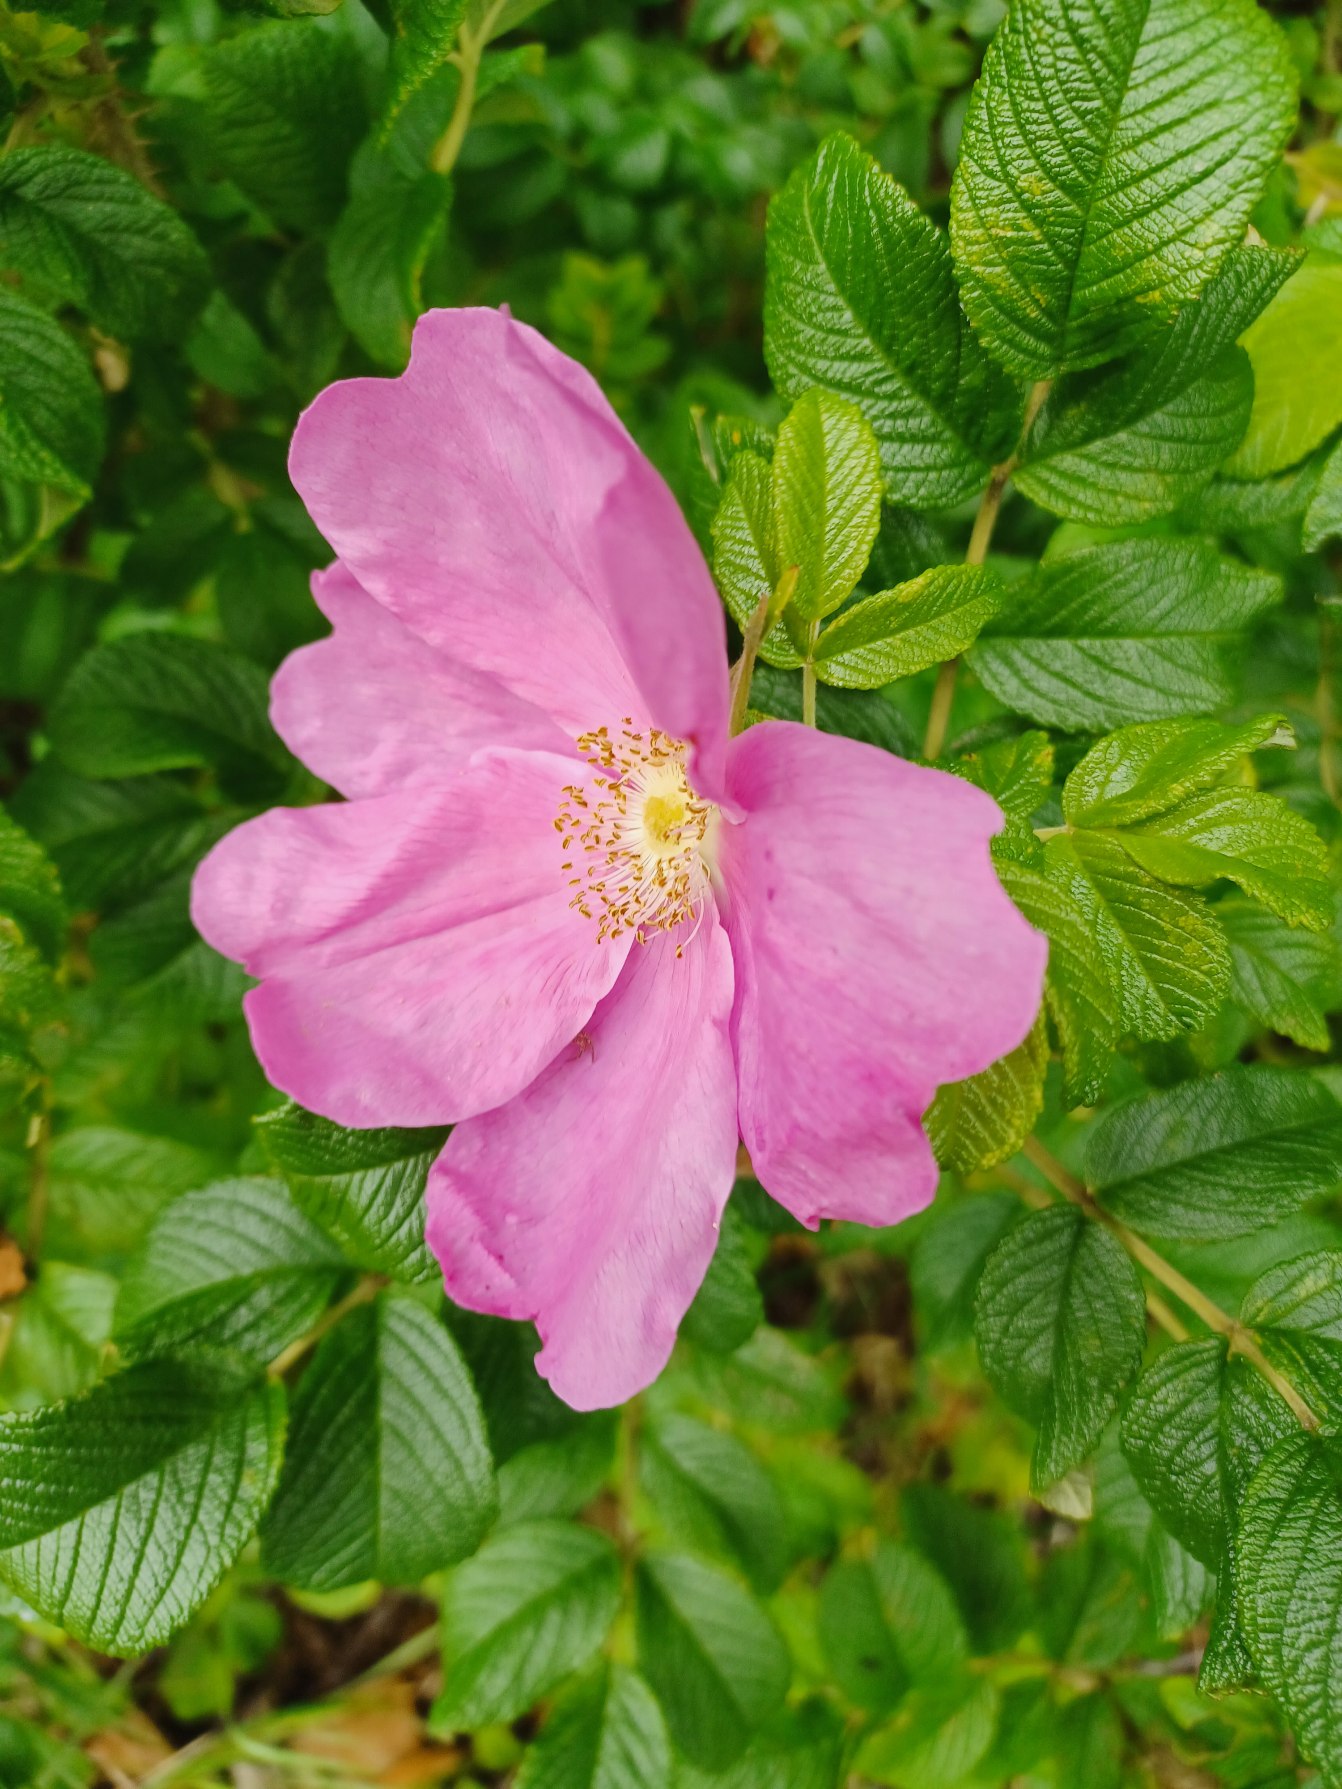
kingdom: Plantae
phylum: Tracheophyta
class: Magnoliopsida
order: Rosales
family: Rosaceae
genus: Rosa
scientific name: Rosa rugosa
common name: Rynket rose
